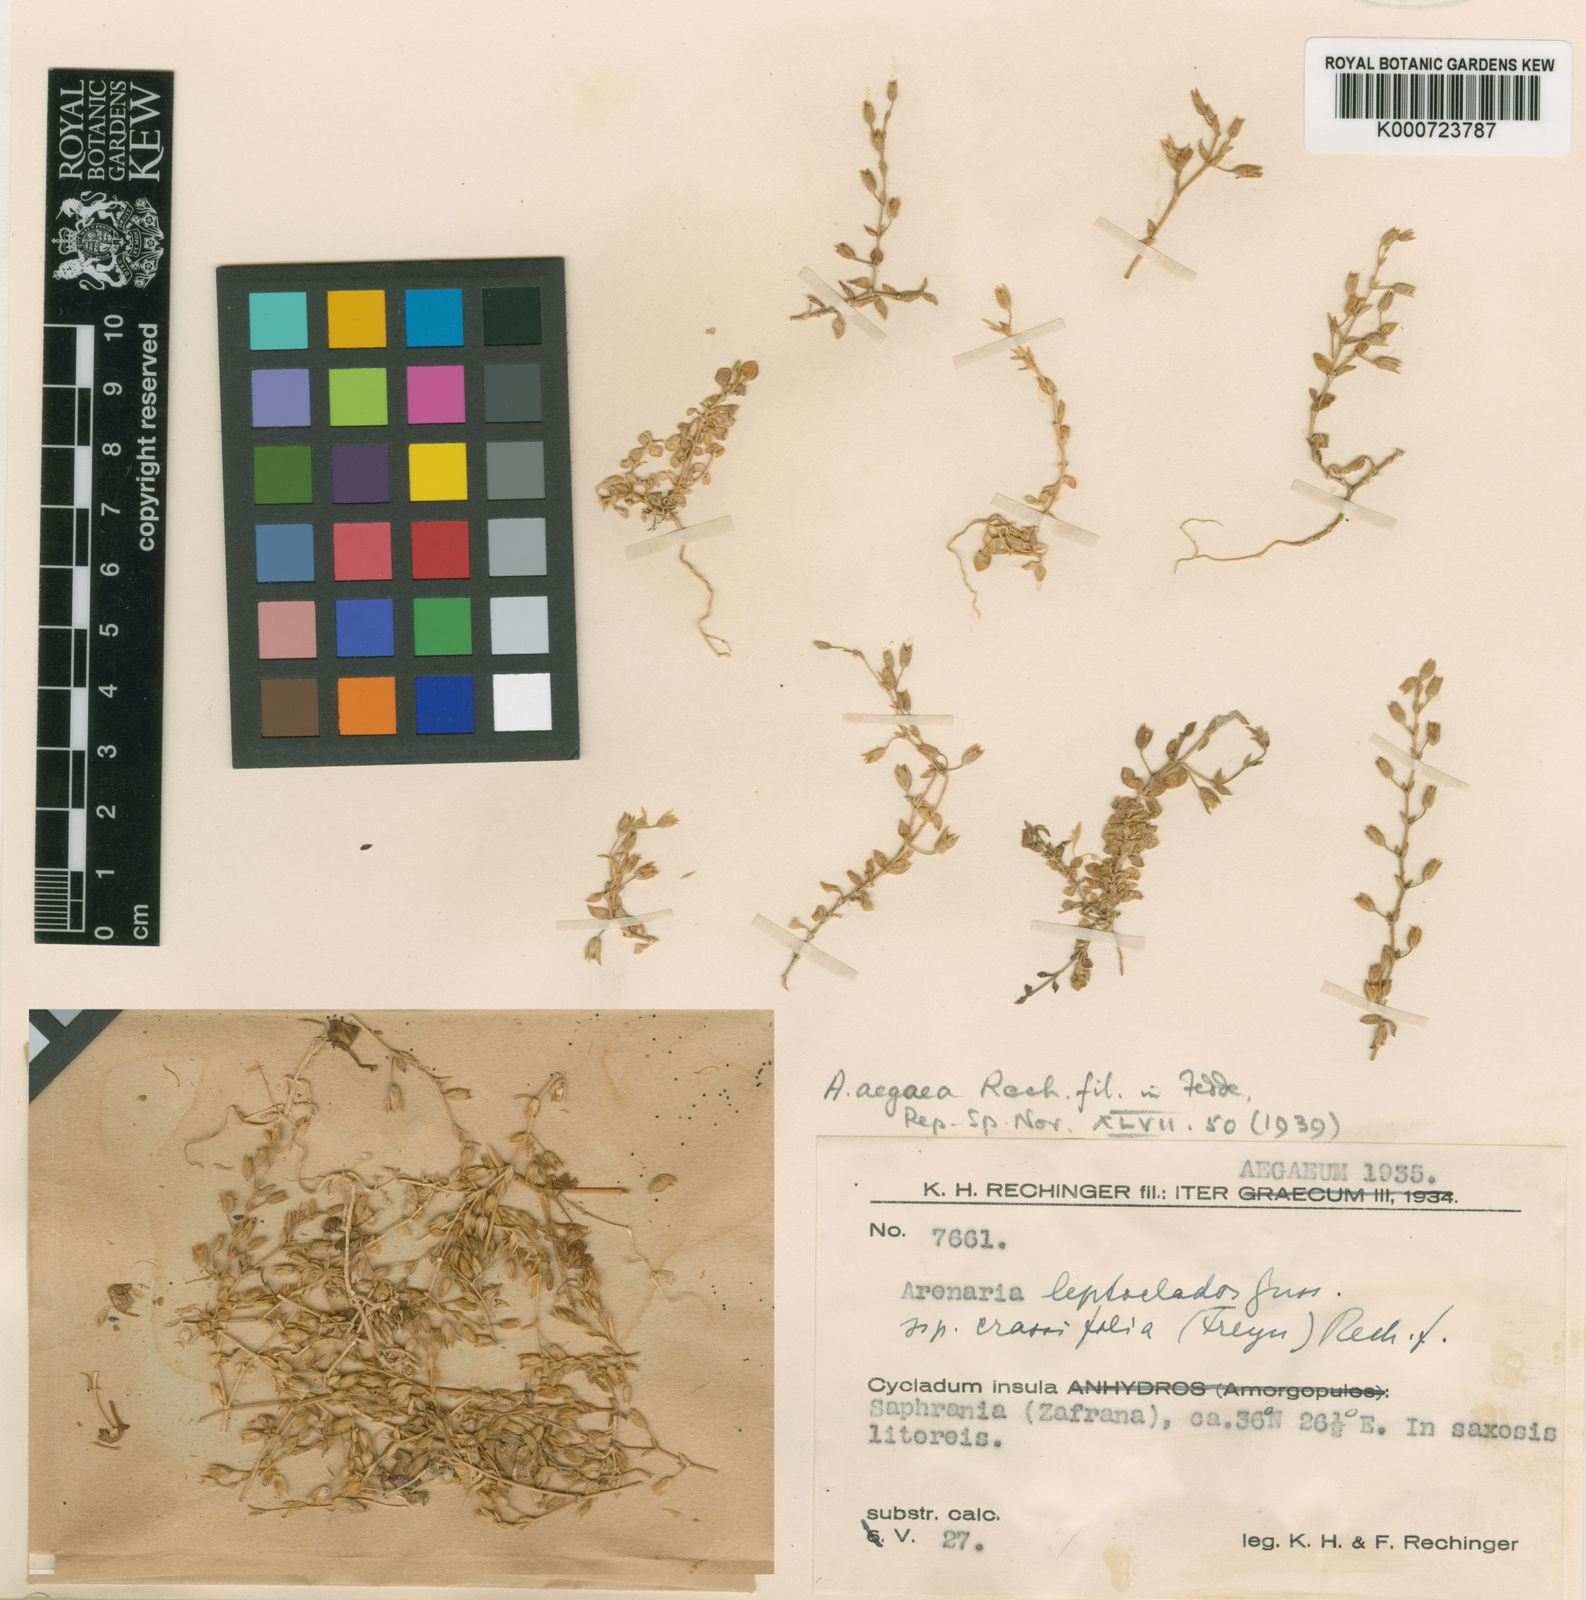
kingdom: Plantae
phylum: Tracheophyta
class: Magnoliopsida
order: Caryophyllales
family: Caryophyllaceae
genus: Arenaria
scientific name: Arenaria leptoclados
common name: Thyme-leaved sandwort
